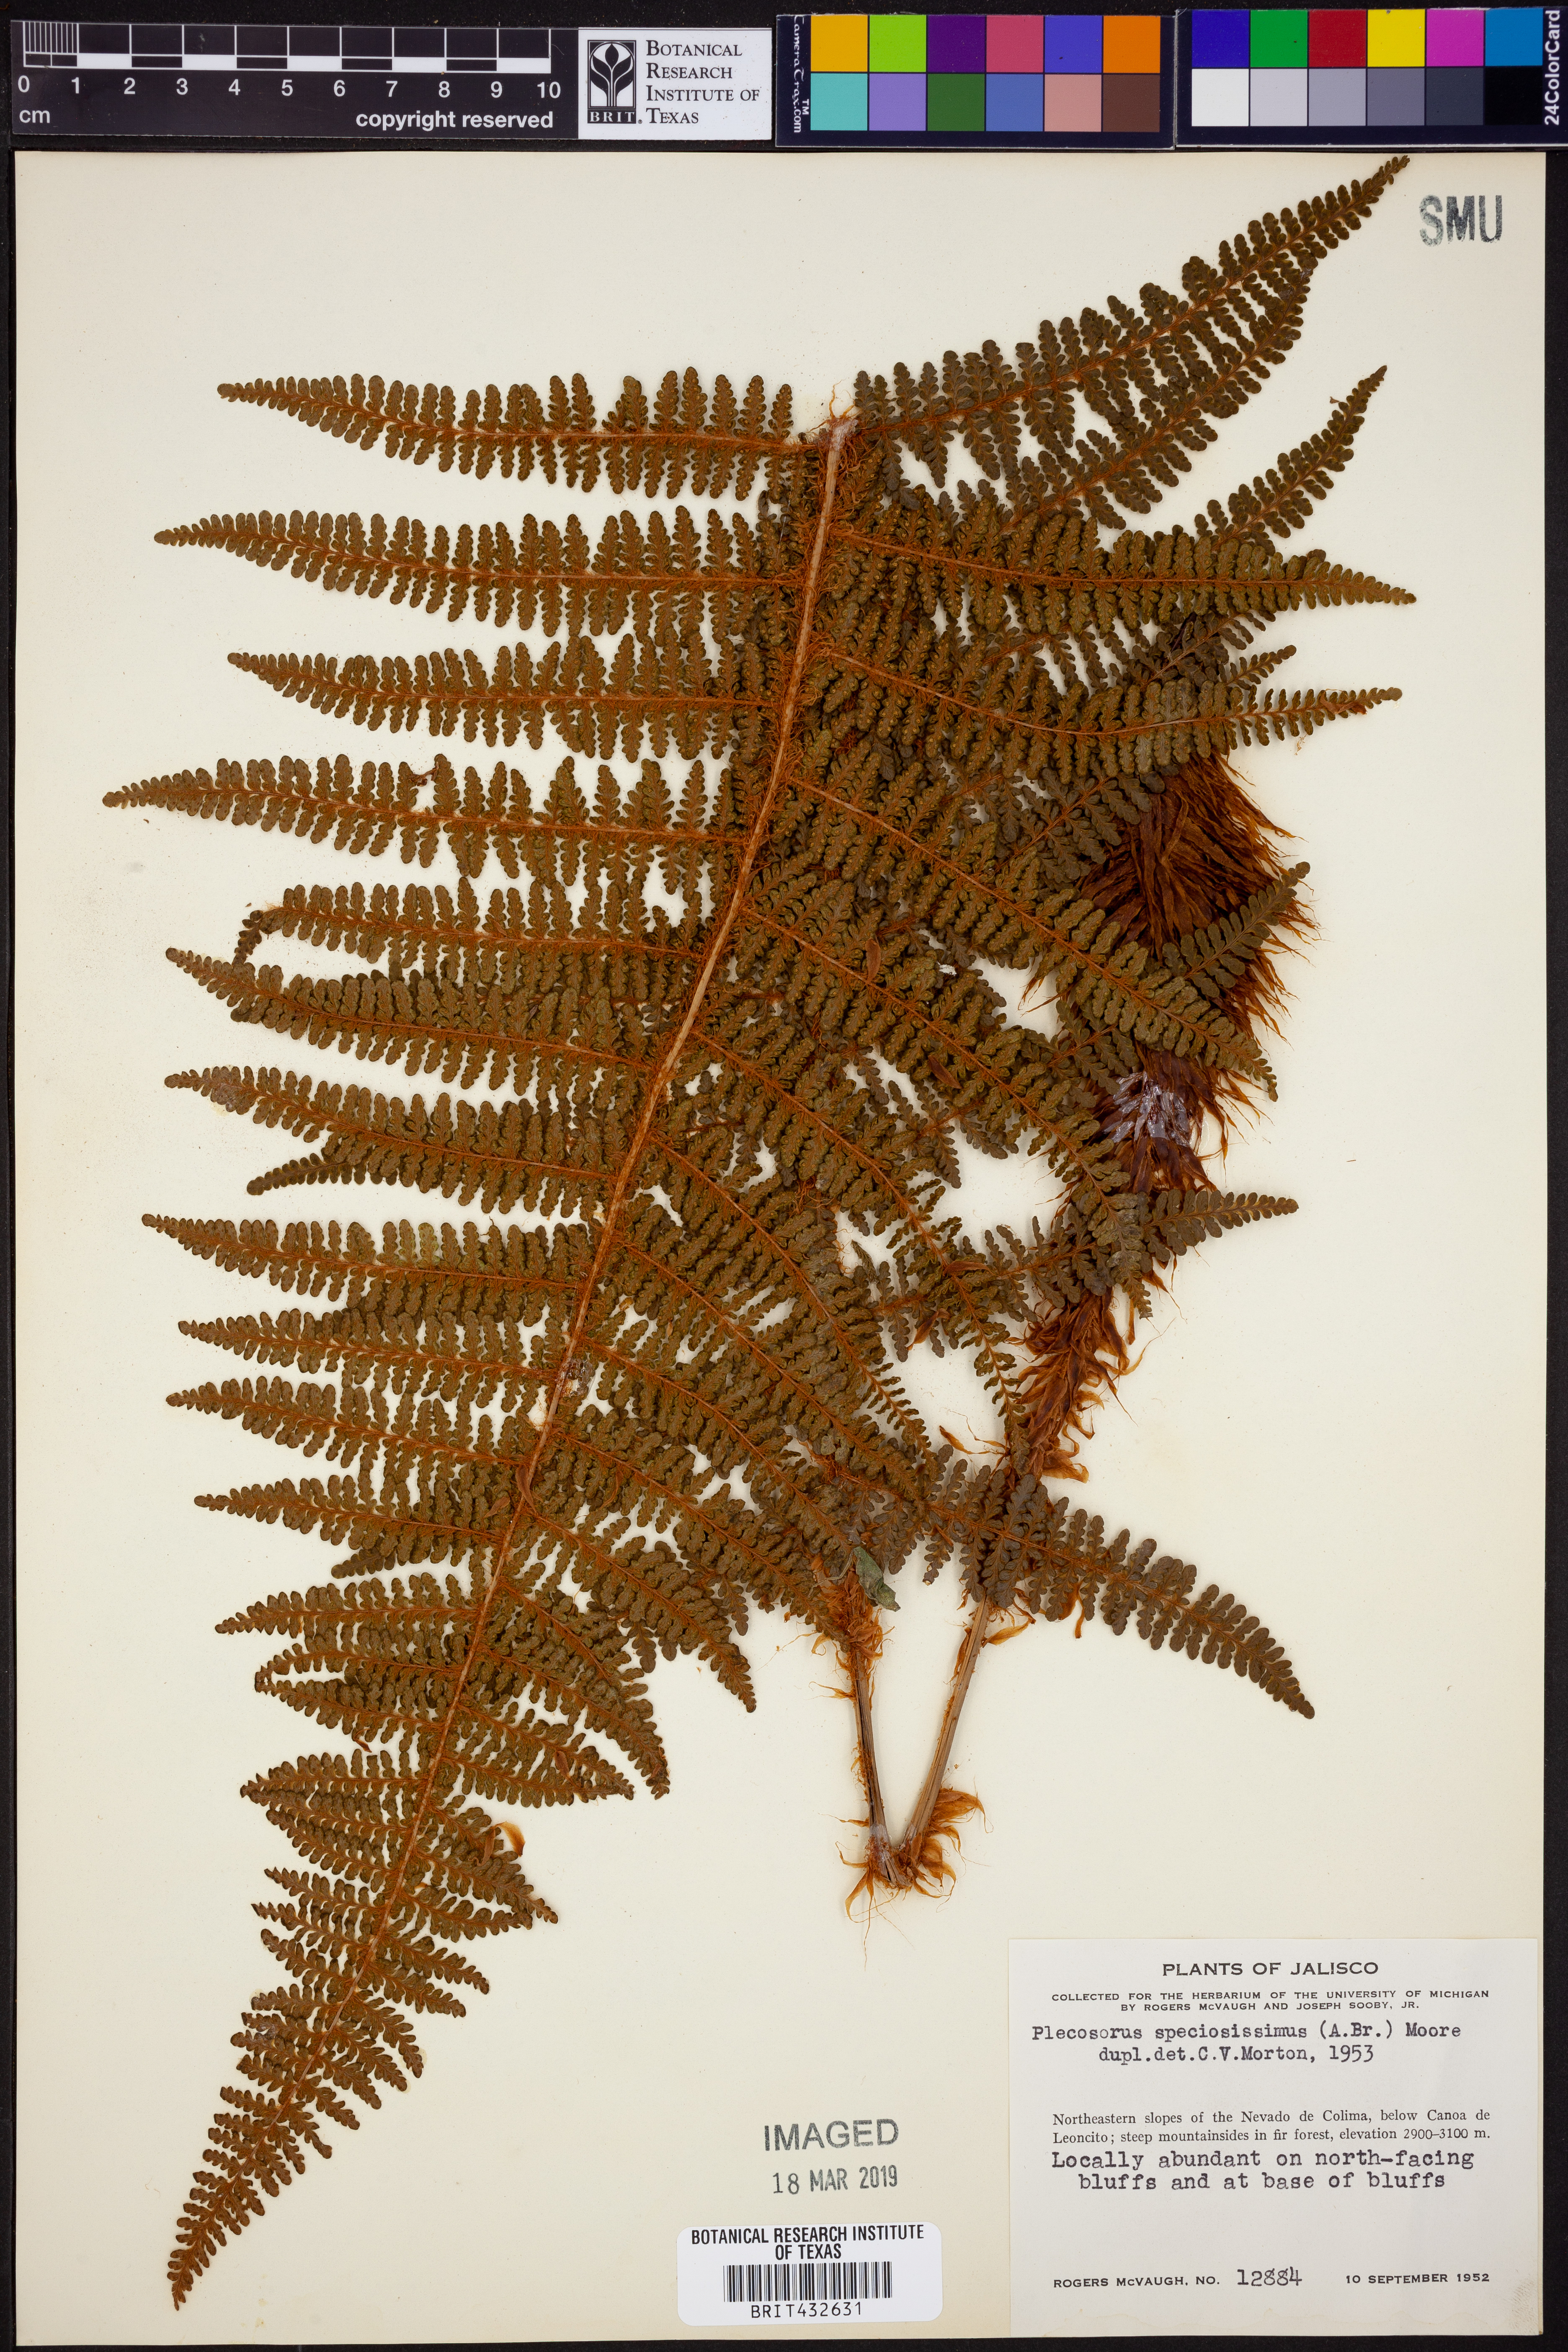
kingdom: Plantae
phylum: Tracheophyta
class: Polypodiopsida
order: Polypodiales
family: Dryopteridaceae
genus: Polystichum
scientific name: Polystichum speciosissimum
